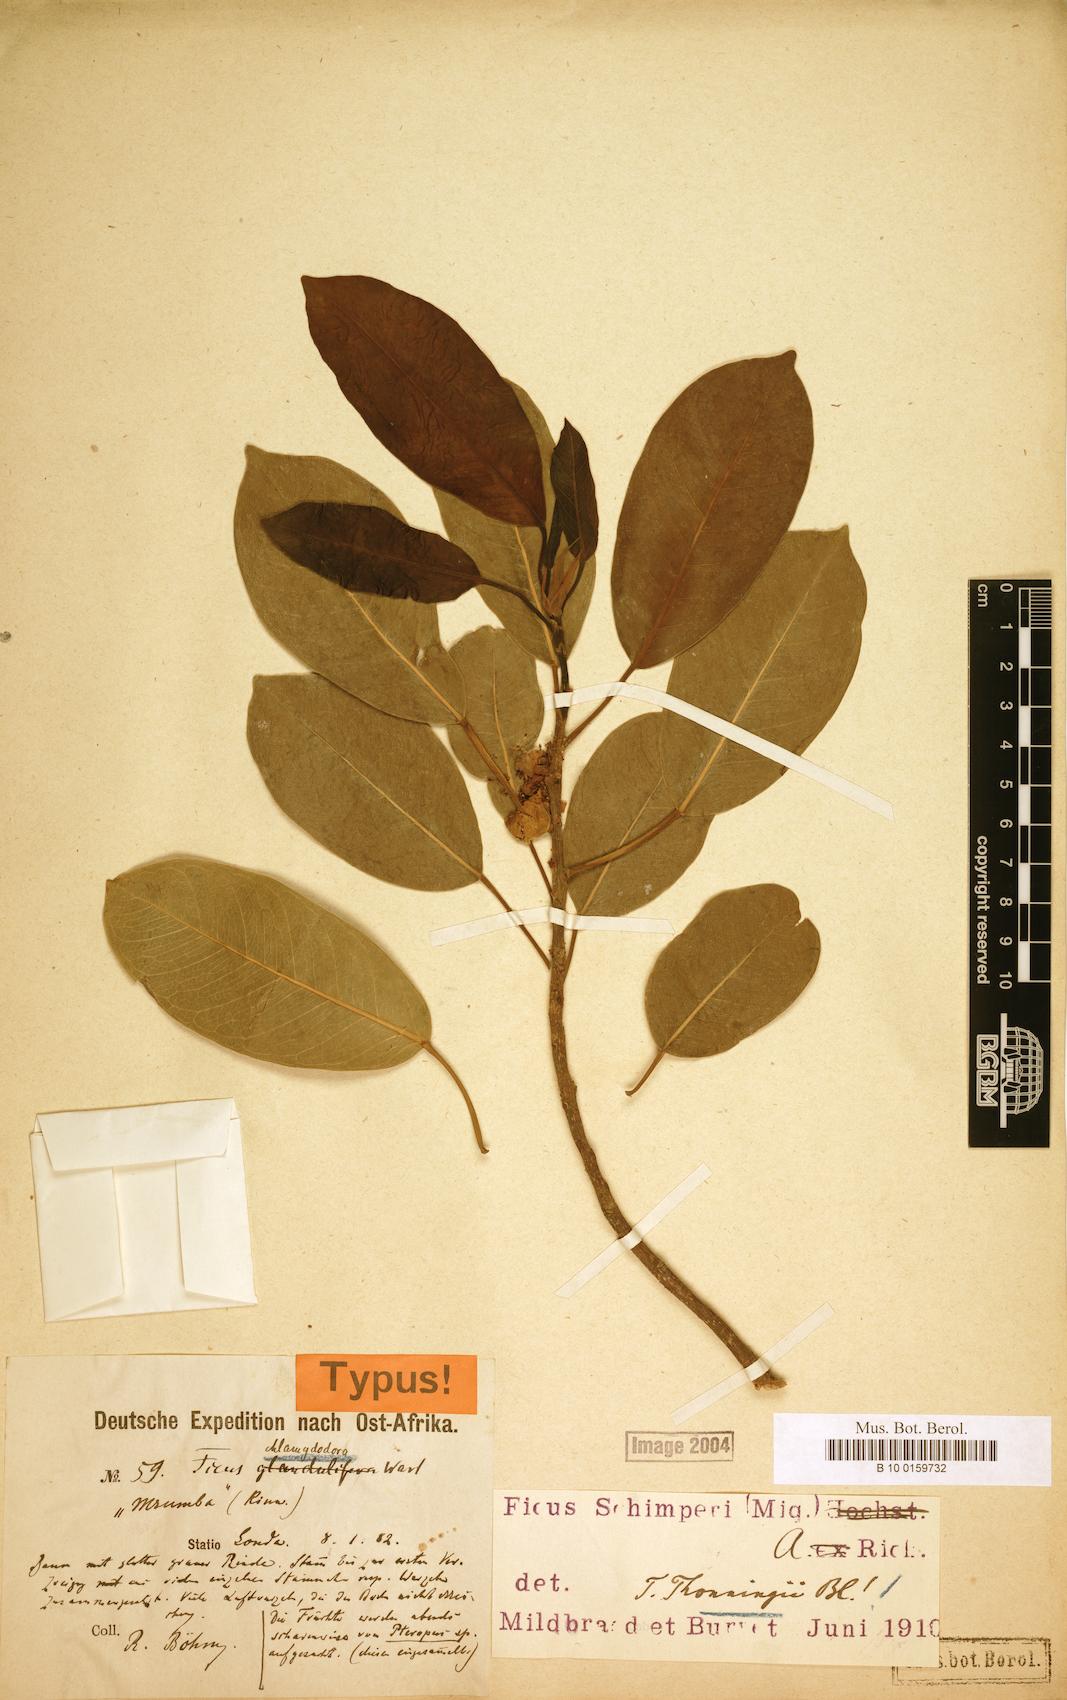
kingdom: Plantae
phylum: Tracheophyta
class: Magnoliopsida
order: Rosales
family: Moraceae
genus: Ficus
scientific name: Ficus thonningii
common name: Fig
